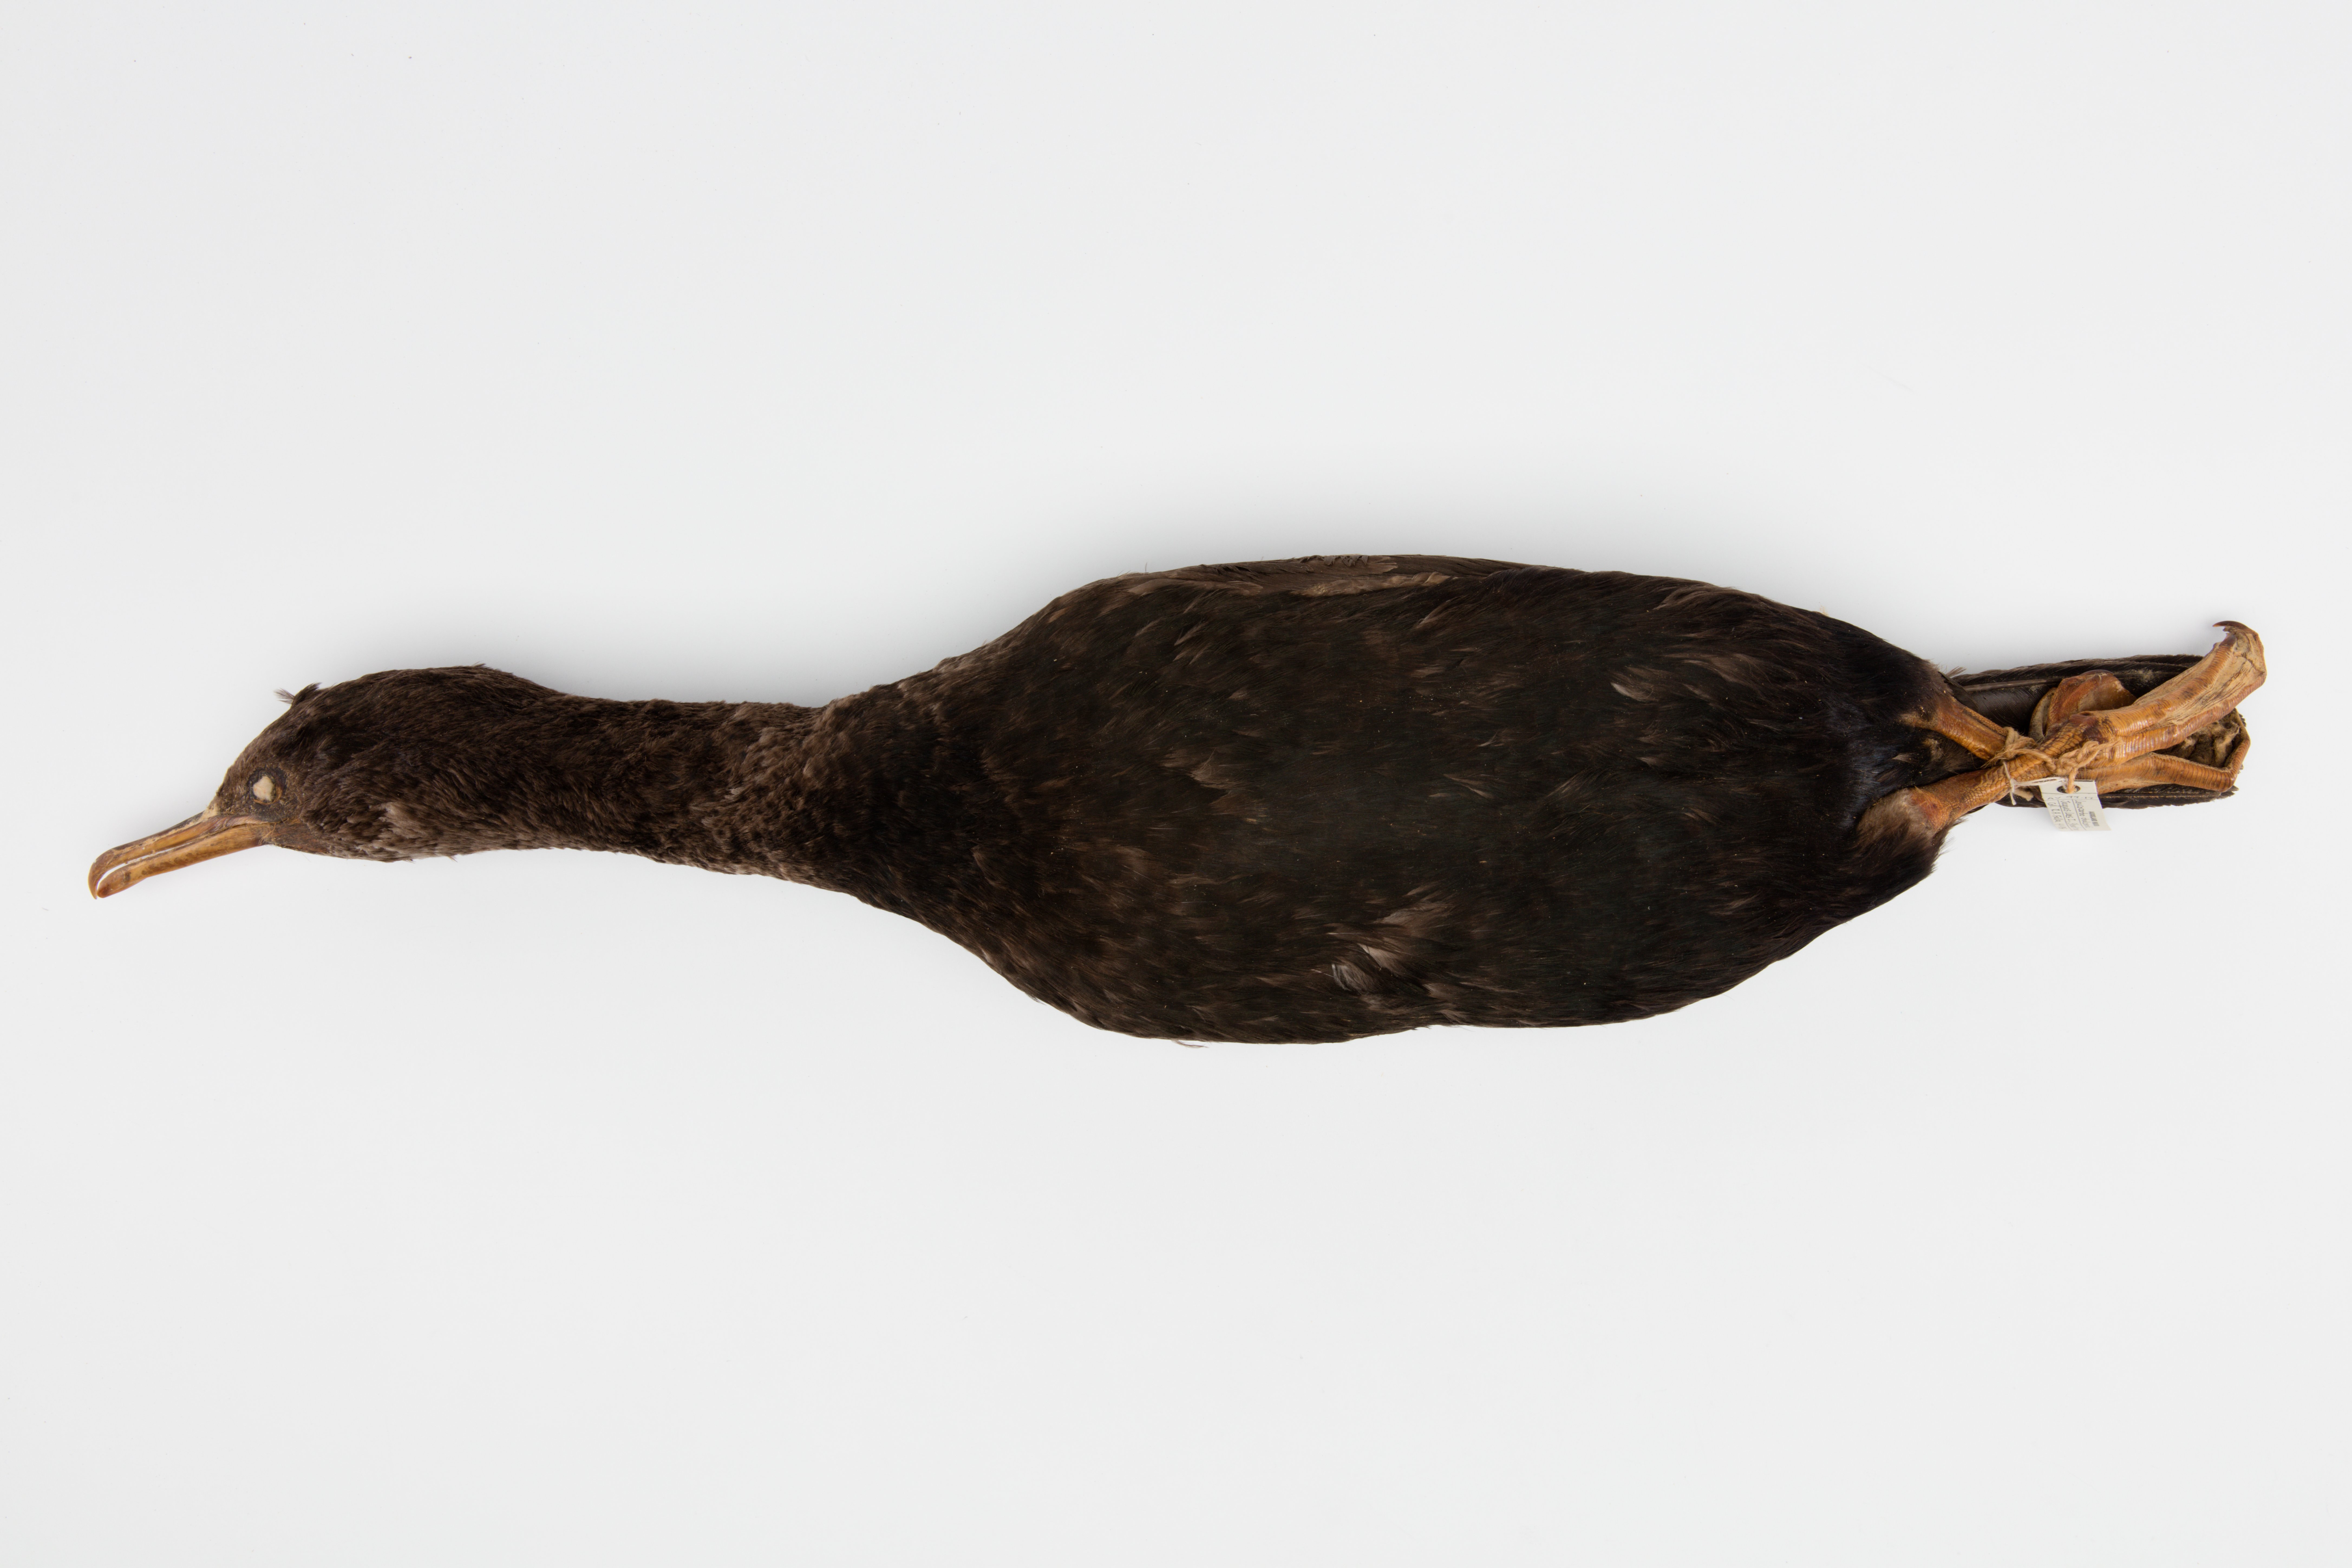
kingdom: Animalia
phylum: Chordata
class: Aves
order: Suliformes
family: Phalacrocoracidae
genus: Leucocarbo
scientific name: Leucocarbo chalconotus
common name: Stewart shag
